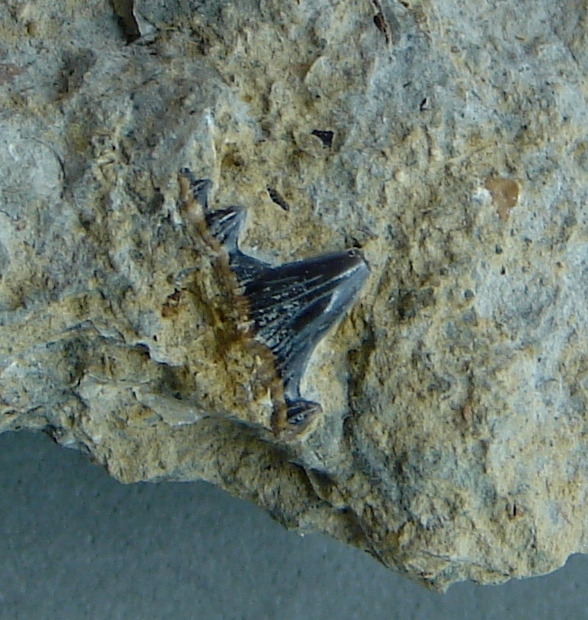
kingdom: Animalia
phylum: Chordata
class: Elasmobranchii
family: Hybodontidae
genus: Hybodus
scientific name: Hybodus reticulatus
